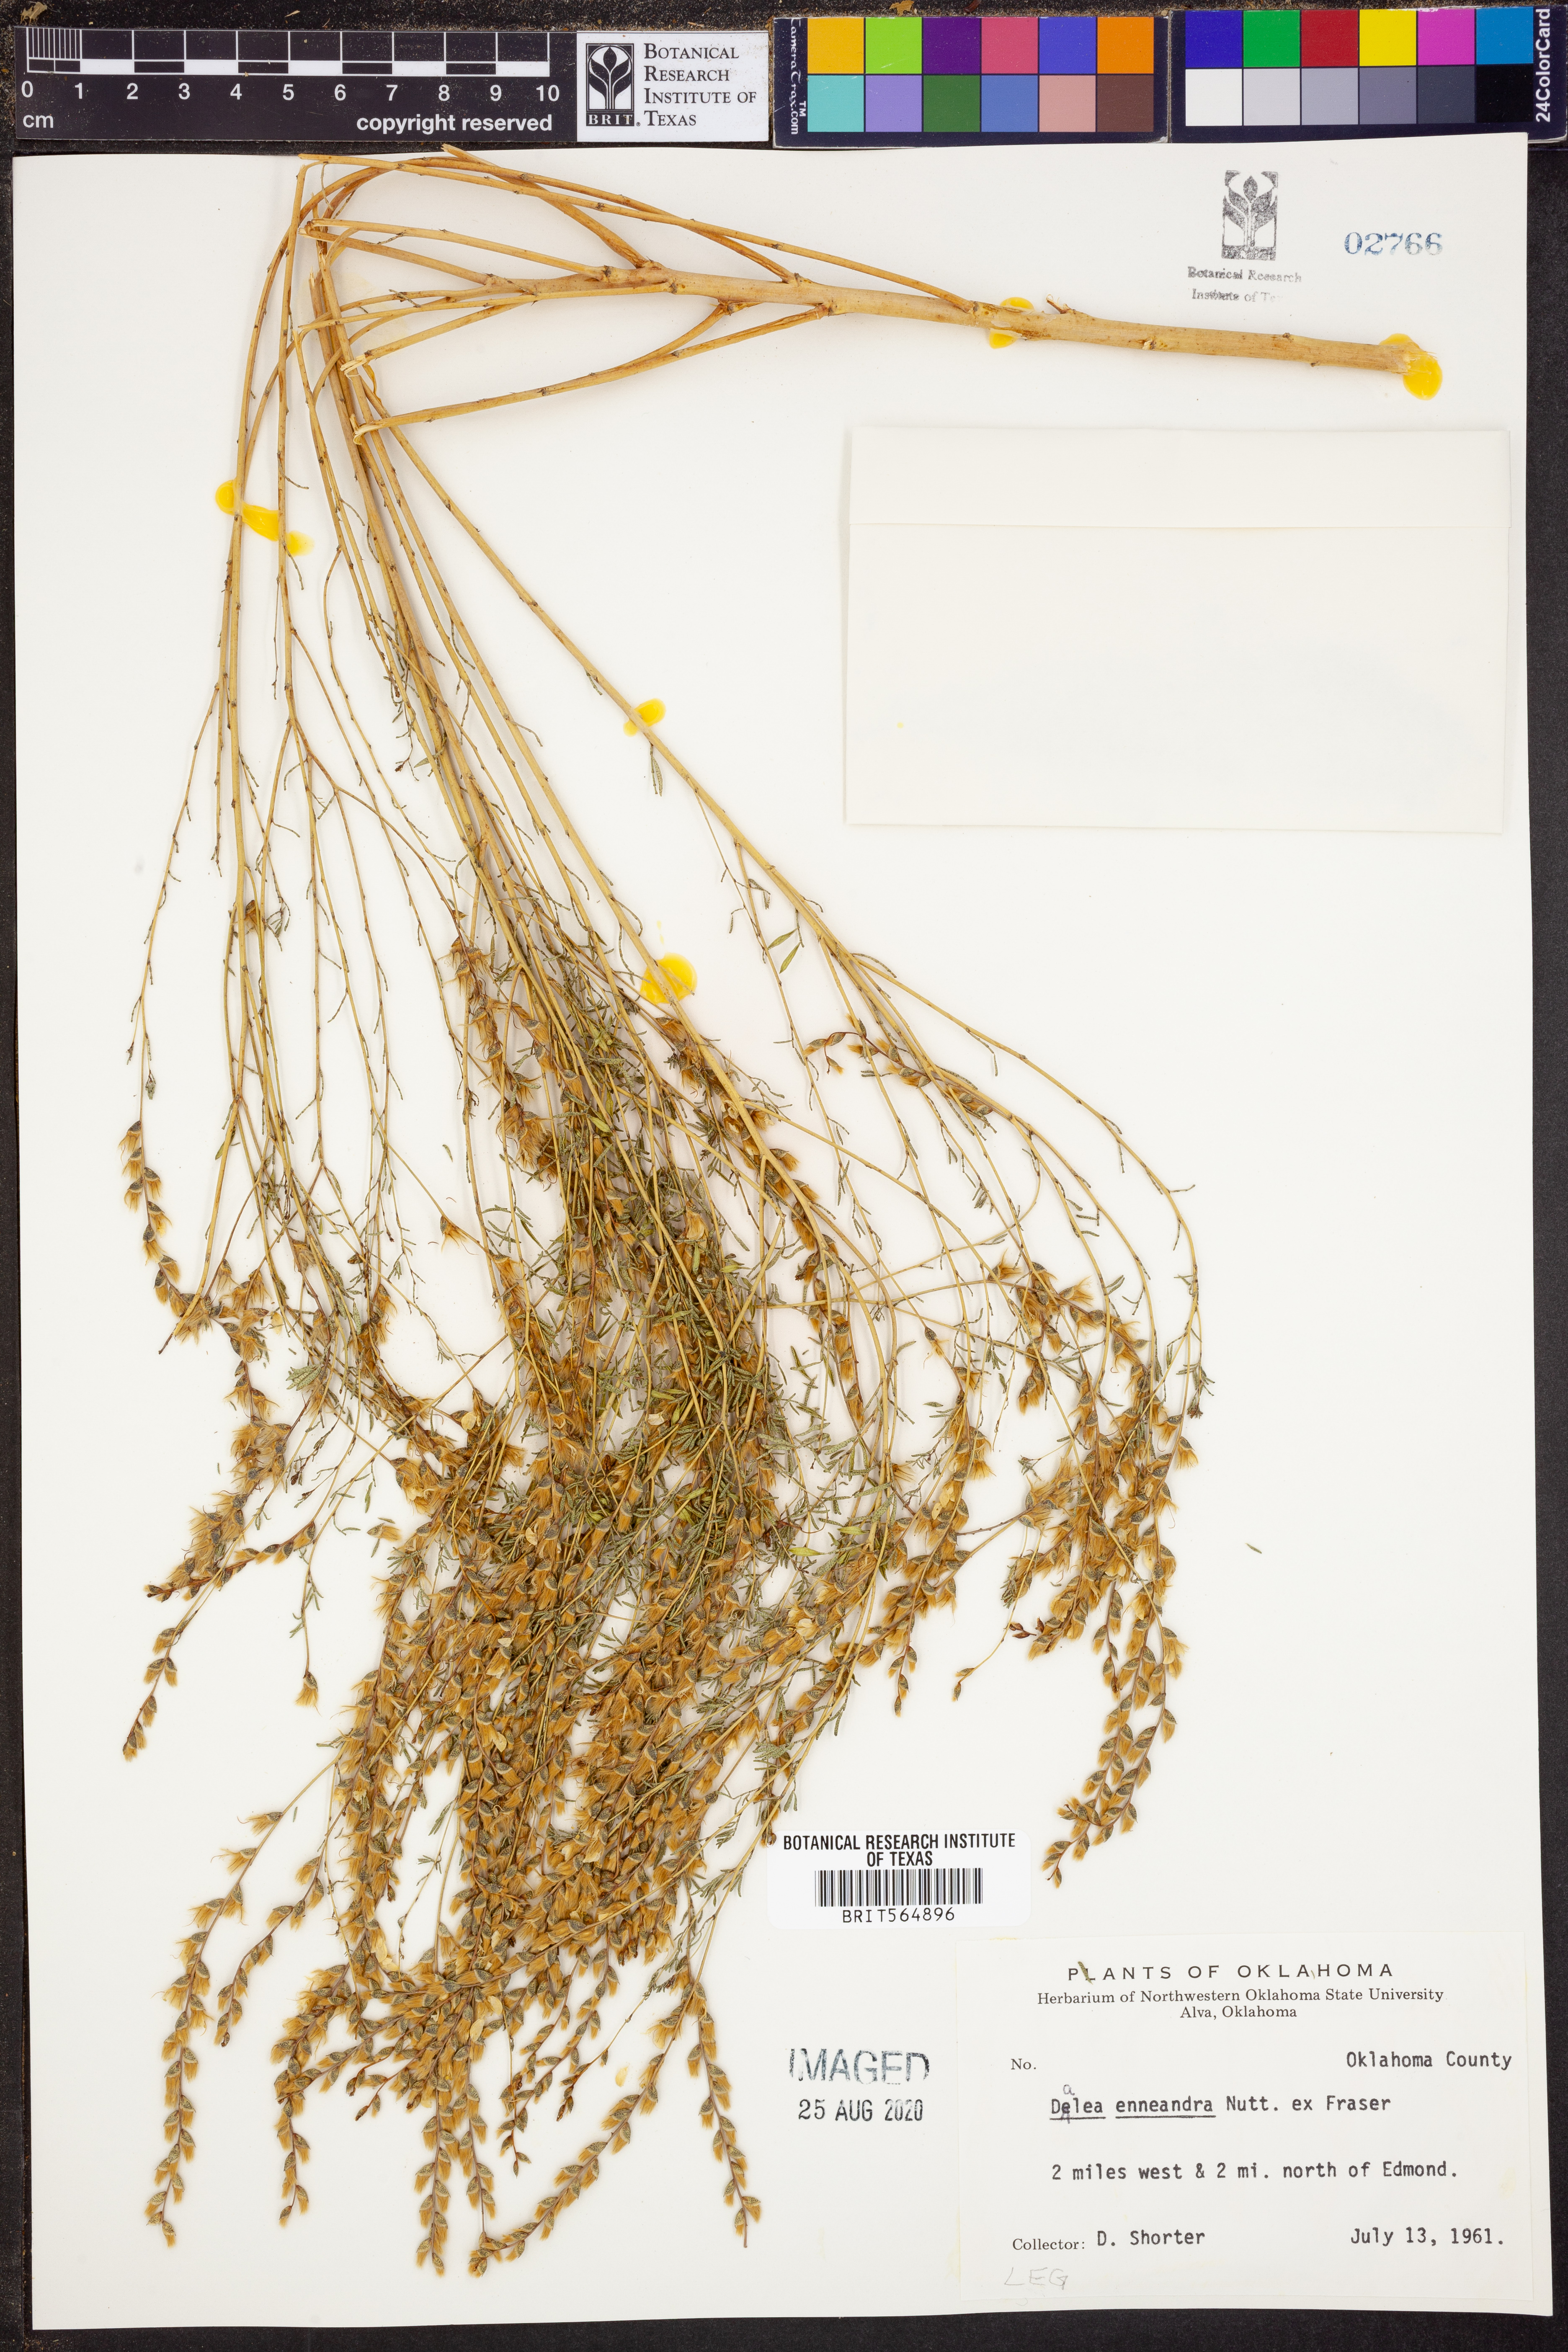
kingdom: Plantae
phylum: Tracheophyta
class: Magnoliopsida
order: Fabales
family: Fabaceae
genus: Dalea
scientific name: Dalea enneandra
